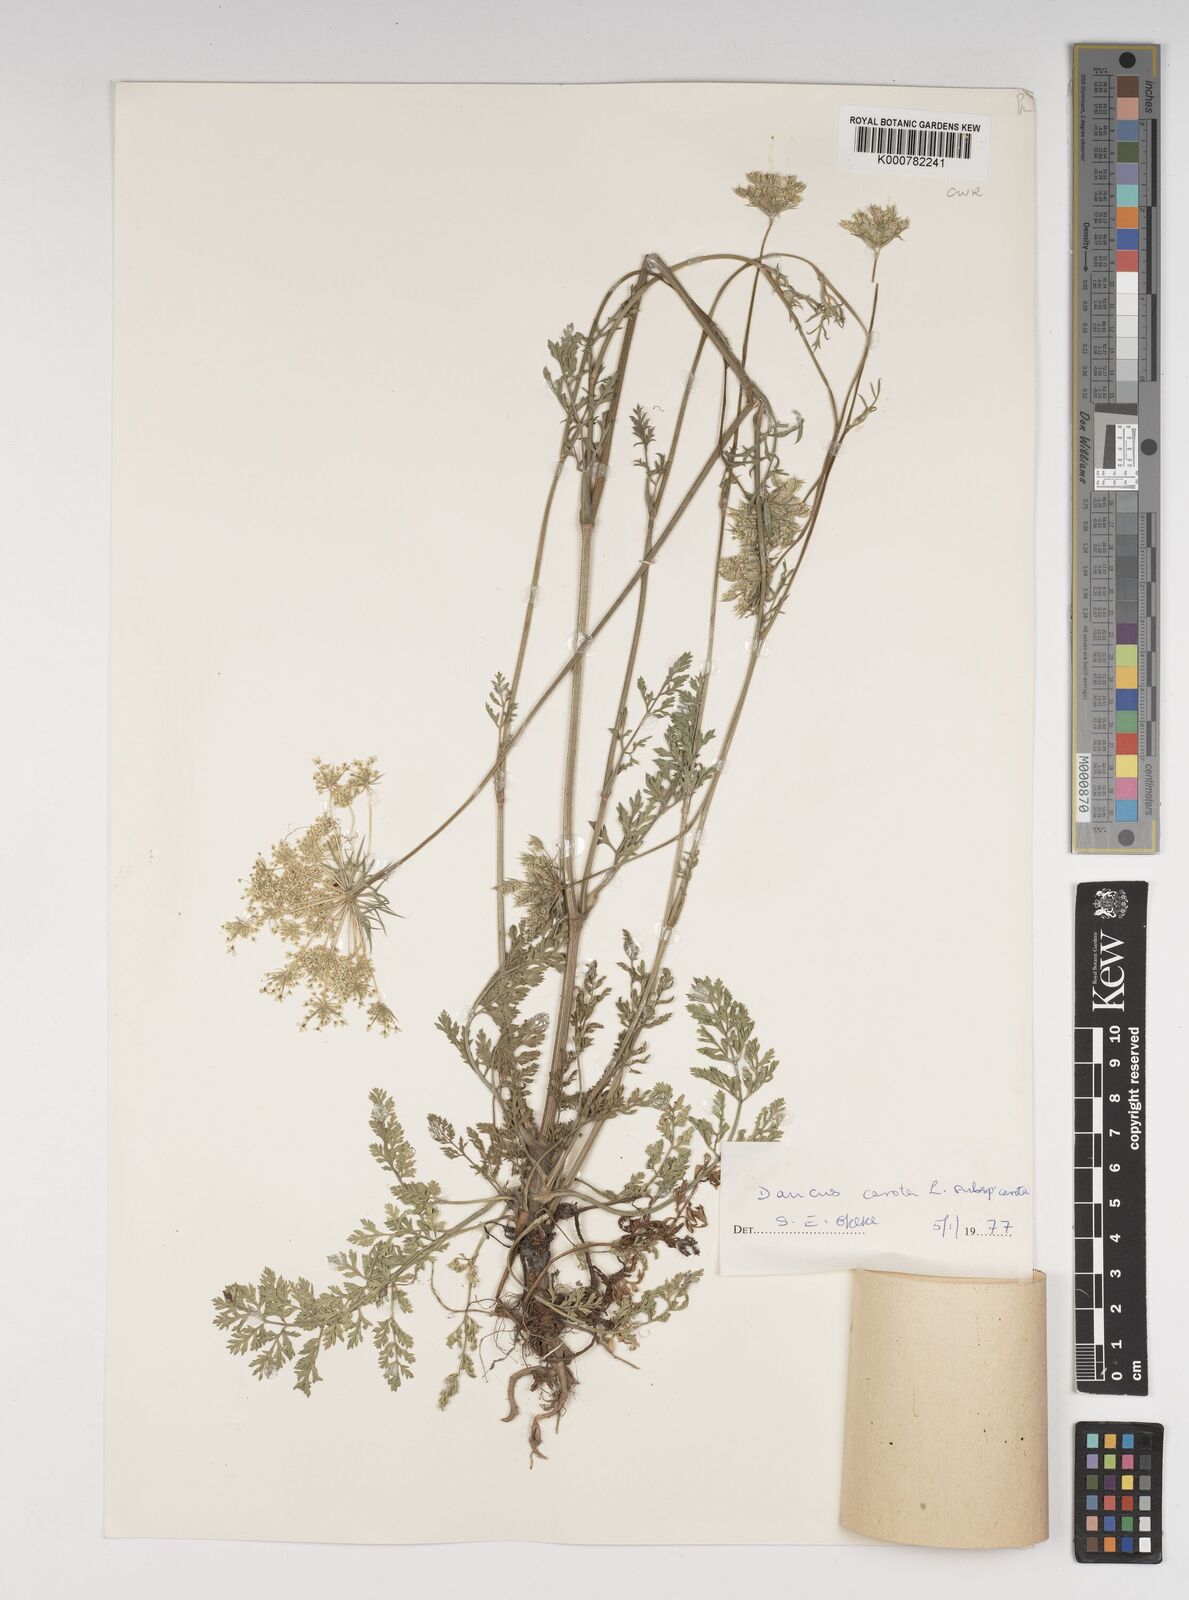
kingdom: Plantae
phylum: Tracheophyta
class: Magnoliopsida
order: Apiales
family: Apiaceae
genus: Daucus
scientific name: Daucus carota
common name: Wild carrot
